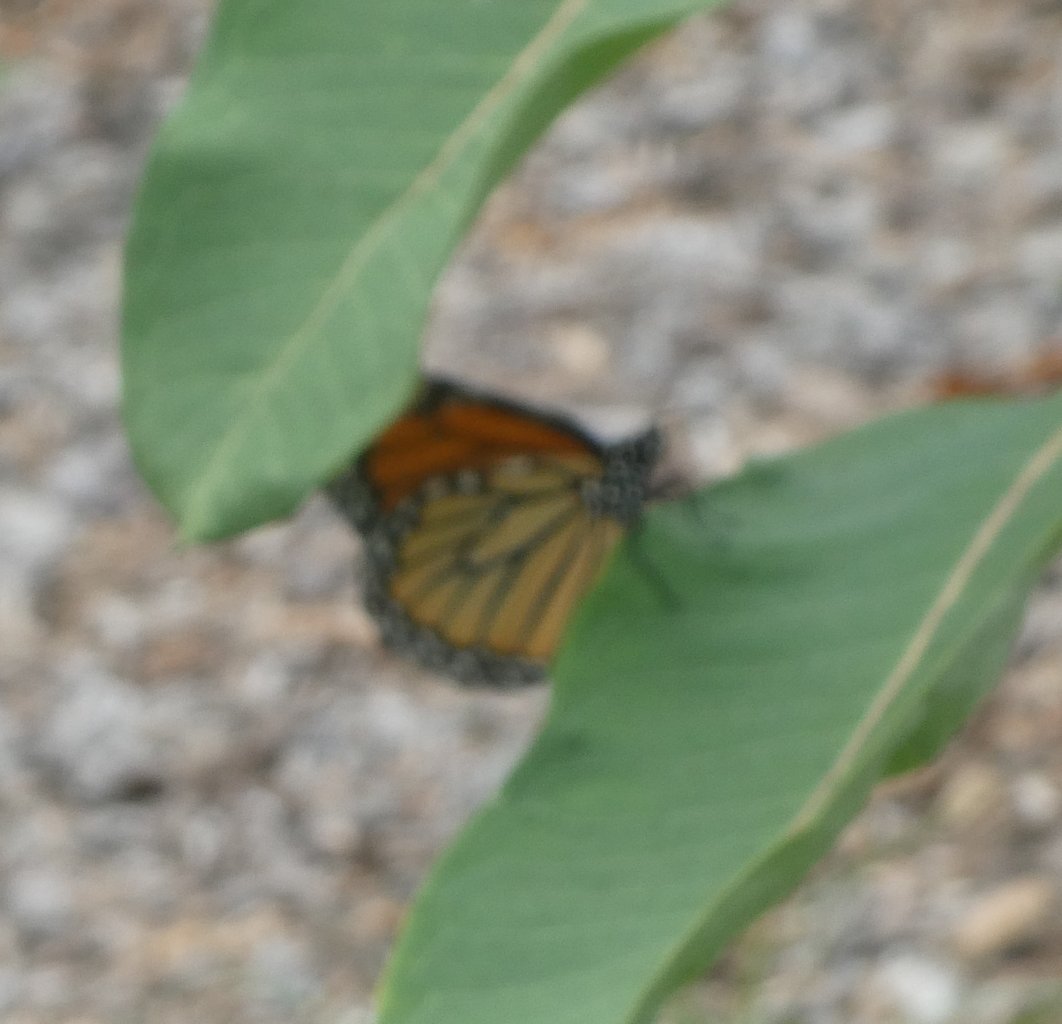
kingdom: Animalia
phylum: Arthropoda
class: Insecta
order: Lepidoptera
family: Nymphalidae
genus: Danaus
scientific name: Danaus plexippus
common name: Monarch
